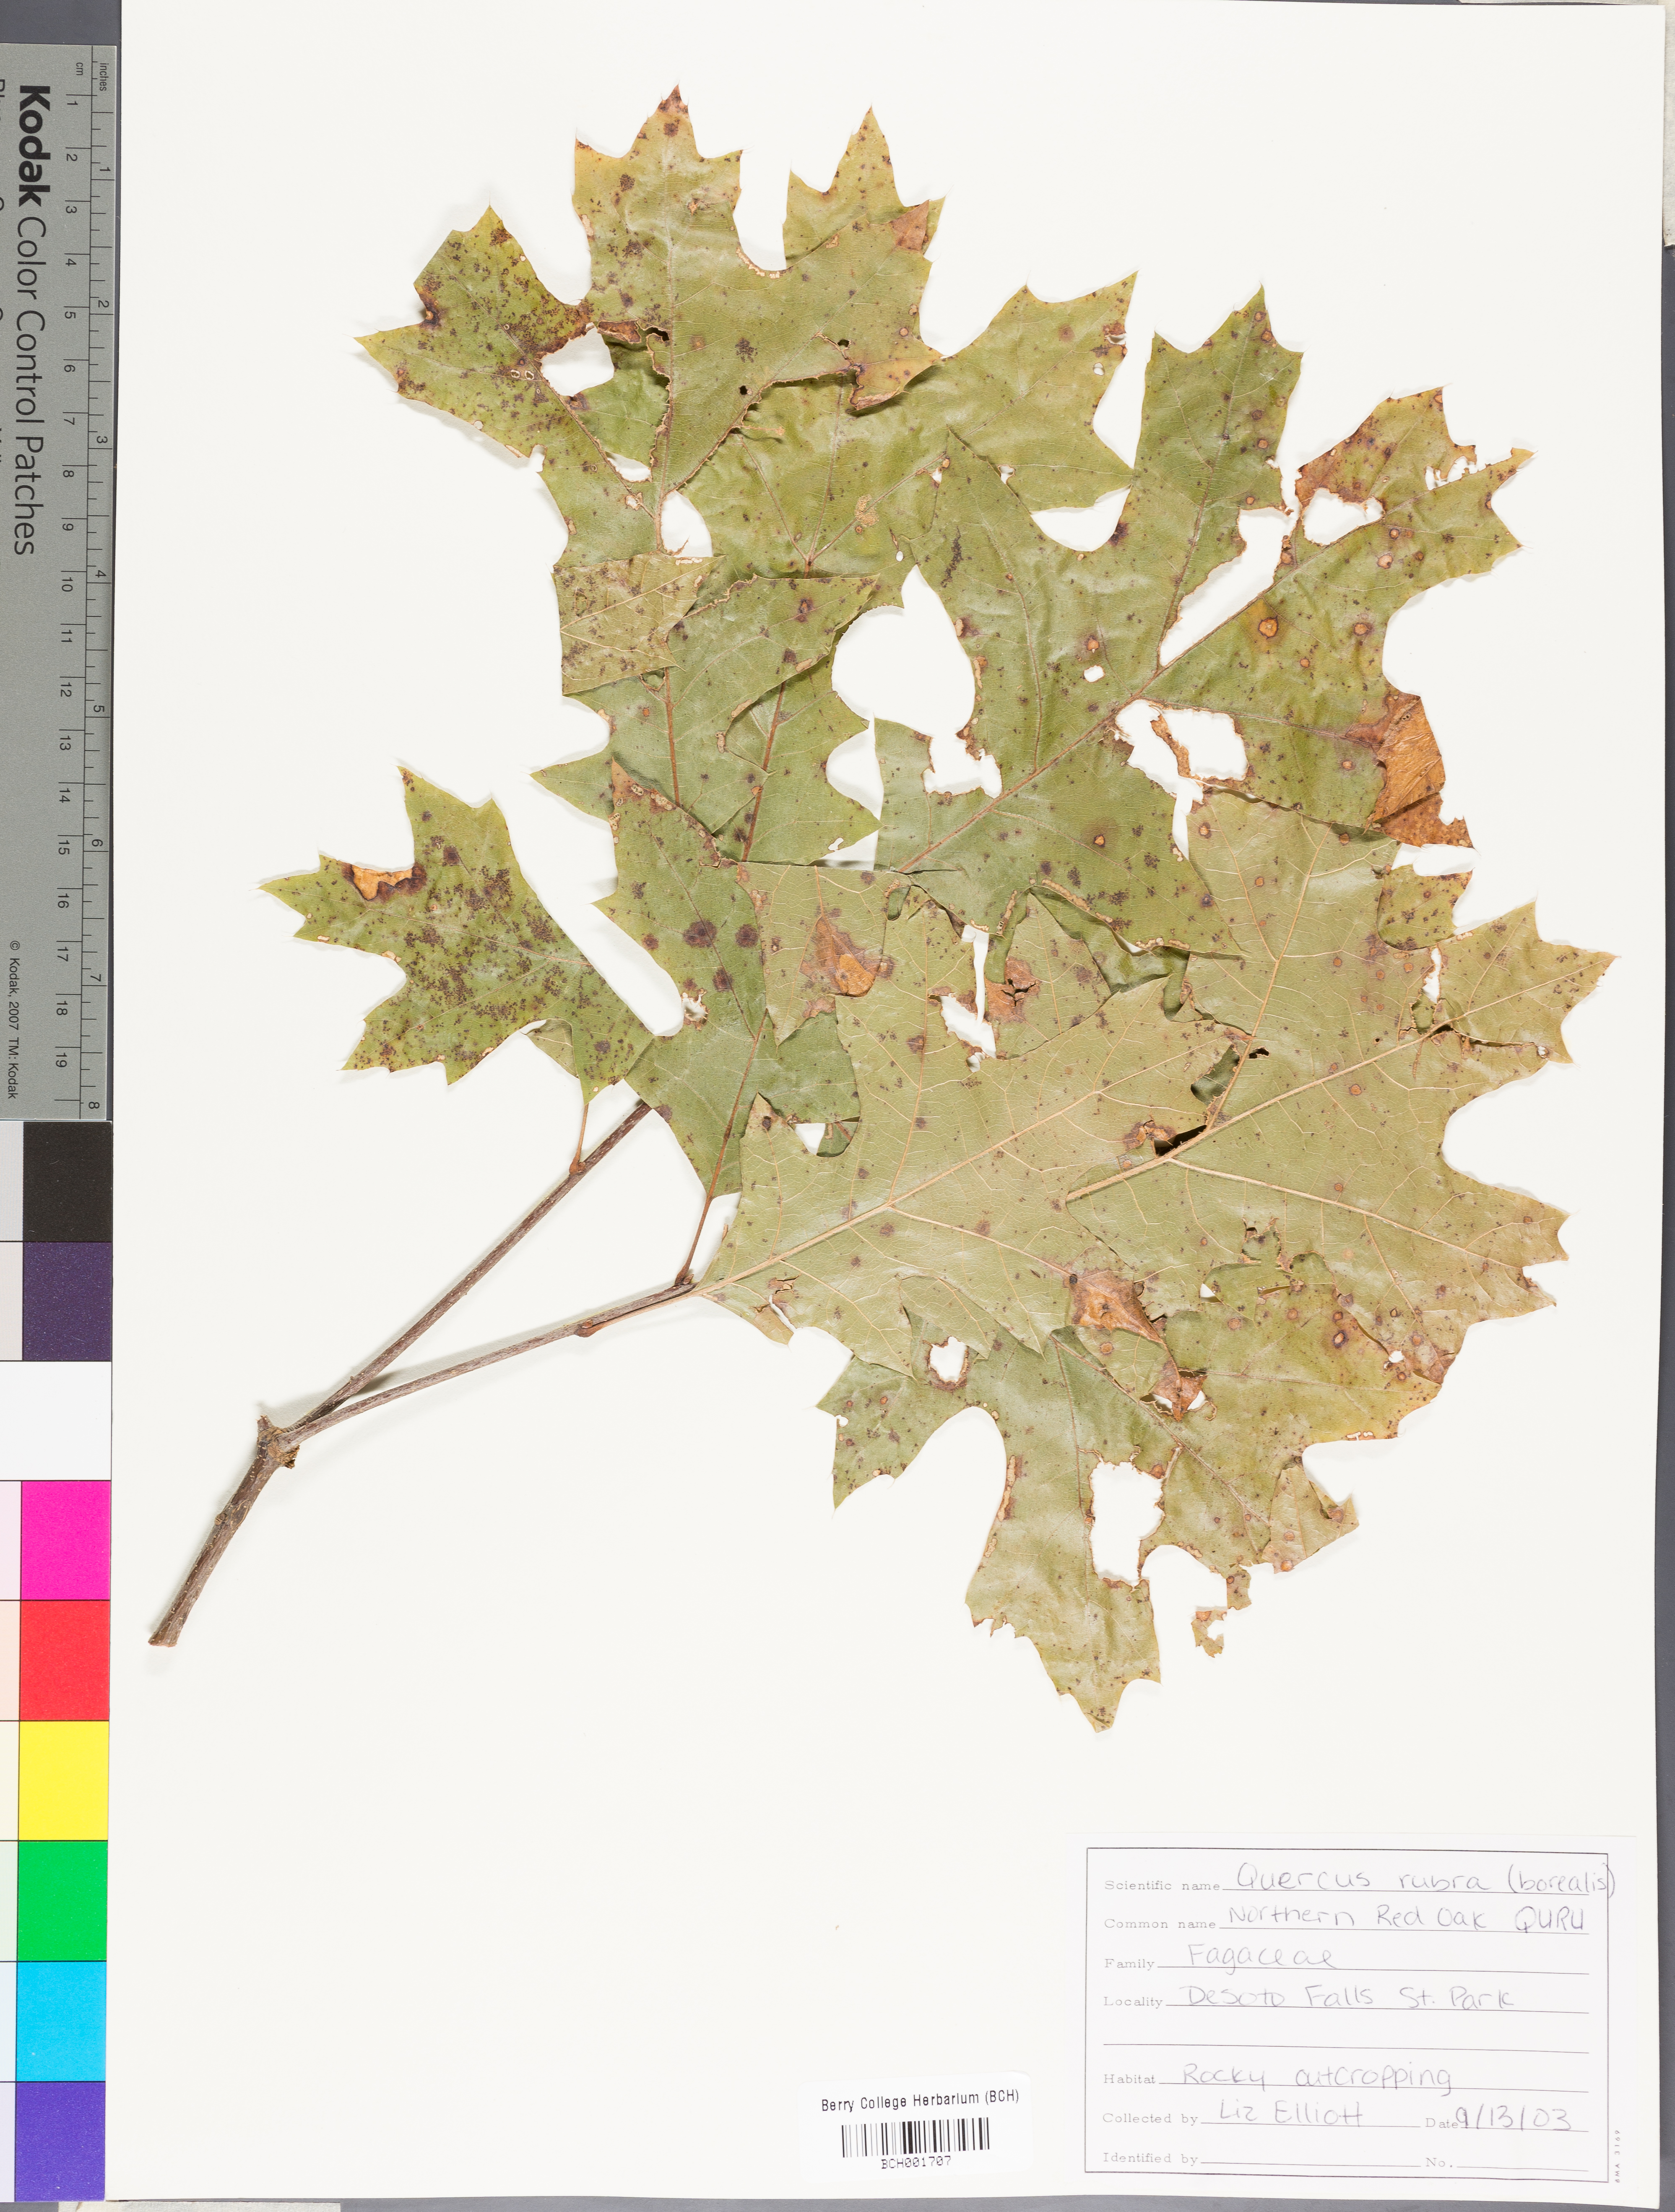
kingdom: Plantae
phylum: Tracheophyta
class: Magnoliopsida
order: Fagales
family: Fagaceae
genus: Quercus
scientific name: Quercus rubra
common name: Red oak
